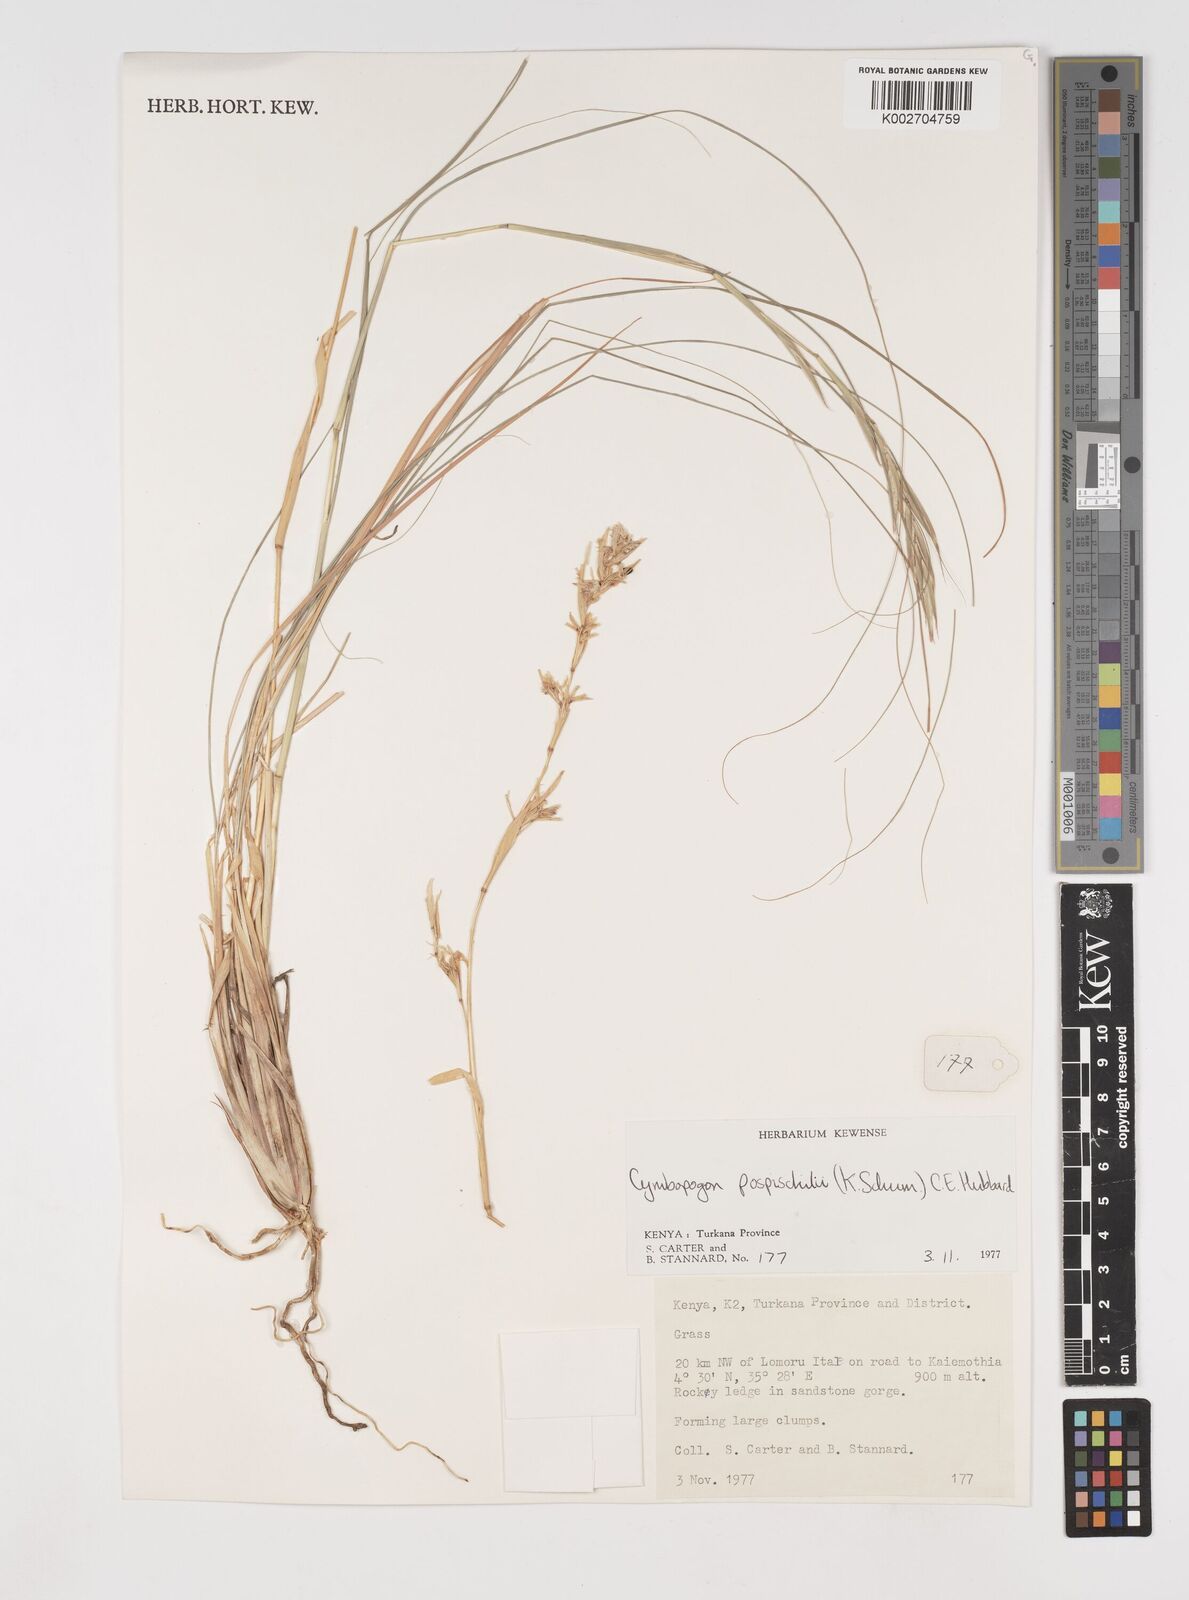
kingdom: Plantae
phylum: Tracheophyta
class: Liliopsida
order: Poales
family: Poaceae
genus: Cymbopogon
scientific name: Cymbopogon pospischilii
